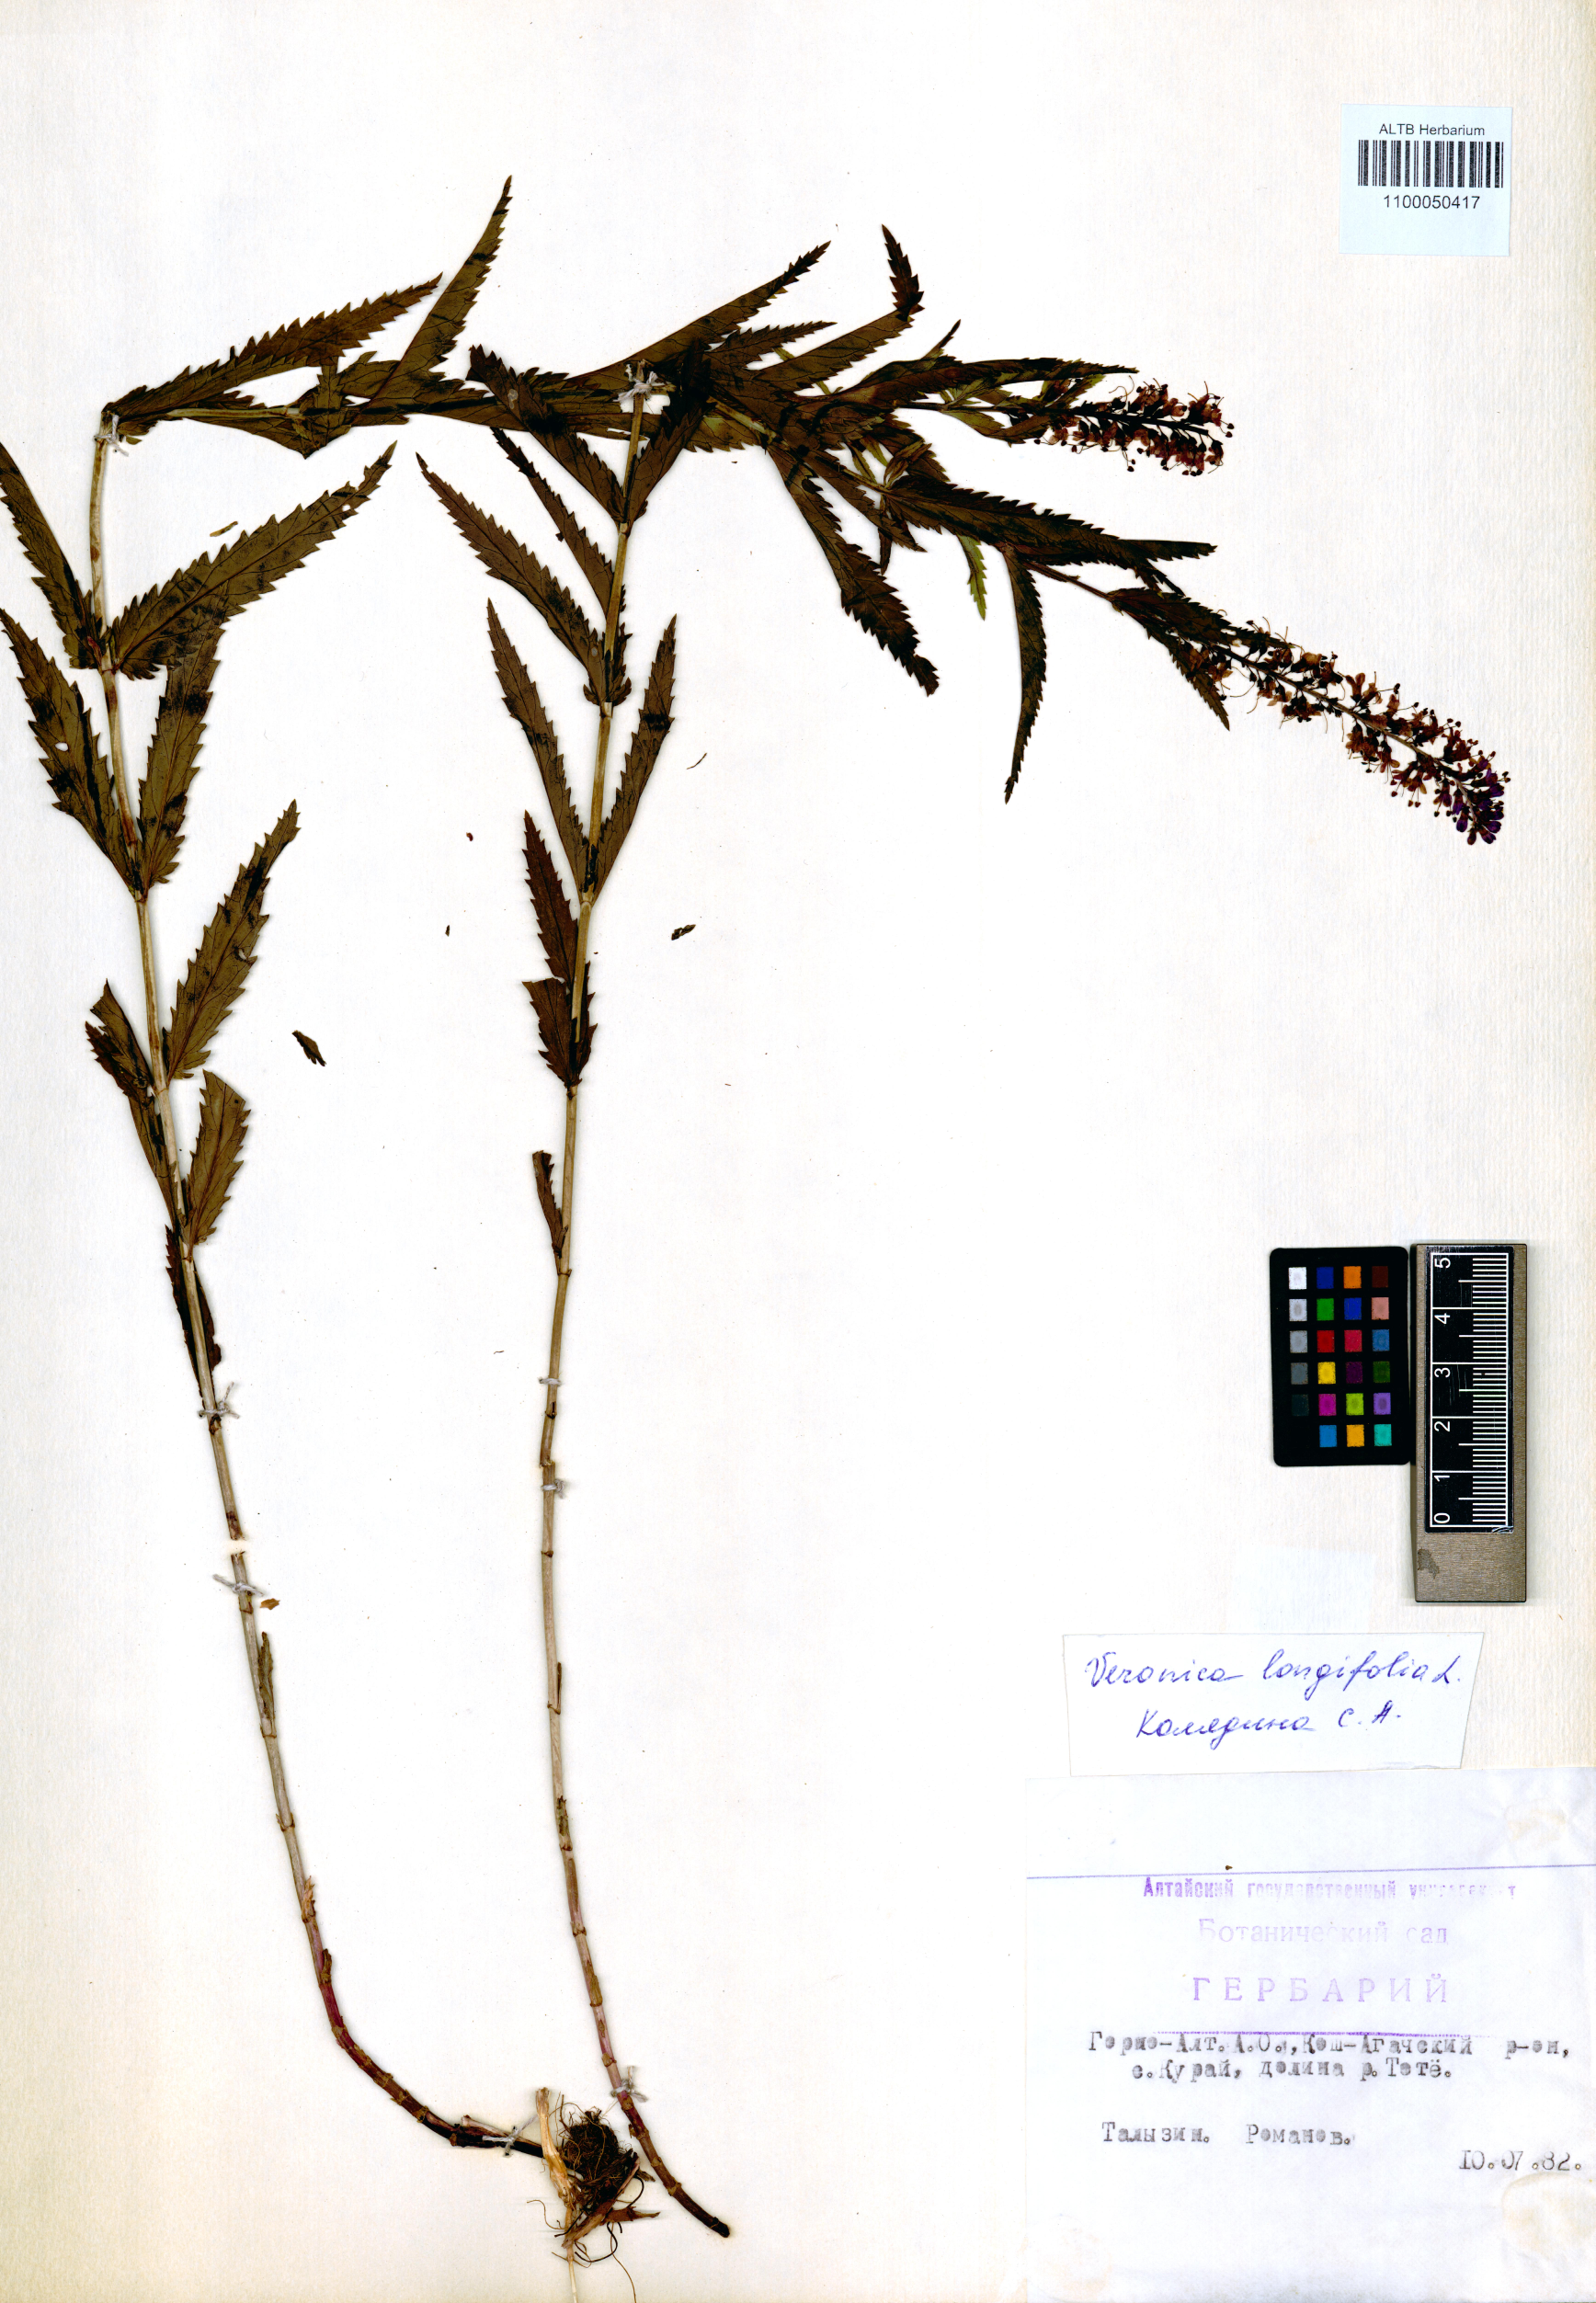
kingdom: Plantae
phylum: Tracheophyta
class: Magnoliopsida
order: Lamiales
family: Plantaginaceae
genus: Veronica
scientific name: Veronica longifolia
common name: Garden speedwell
